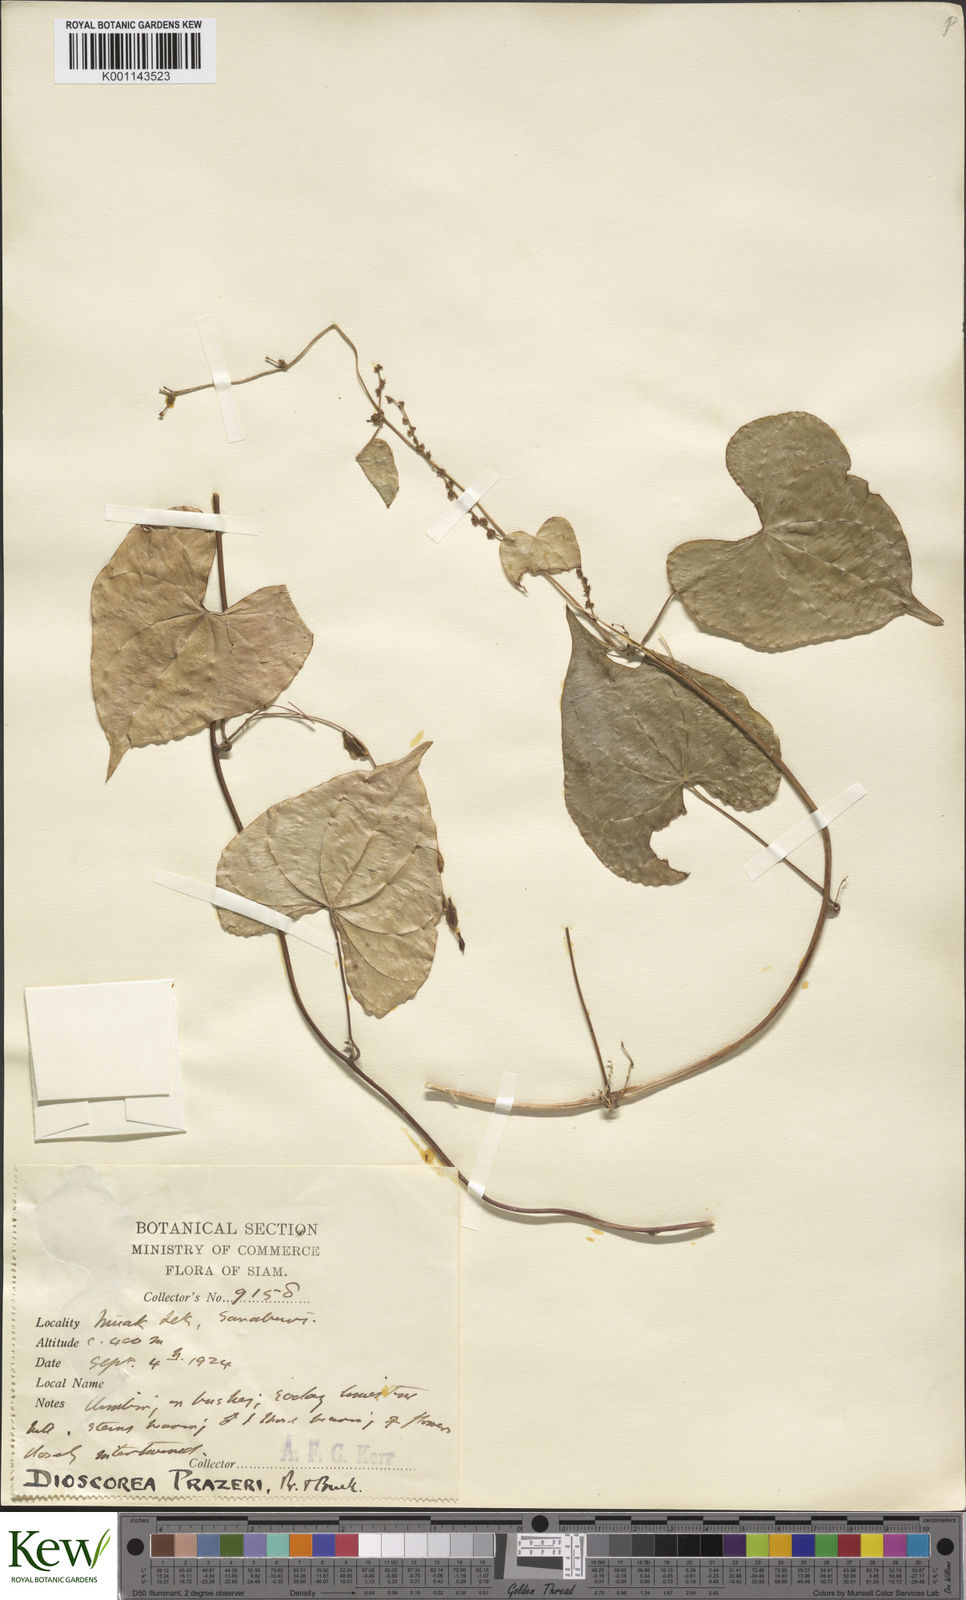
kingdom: Plantae
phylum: Tracheophyta
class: Liliopsida
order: Dioscoreales
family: Dioscoreaceae
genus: Dioscorea
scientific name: Dioscorea prazeri
